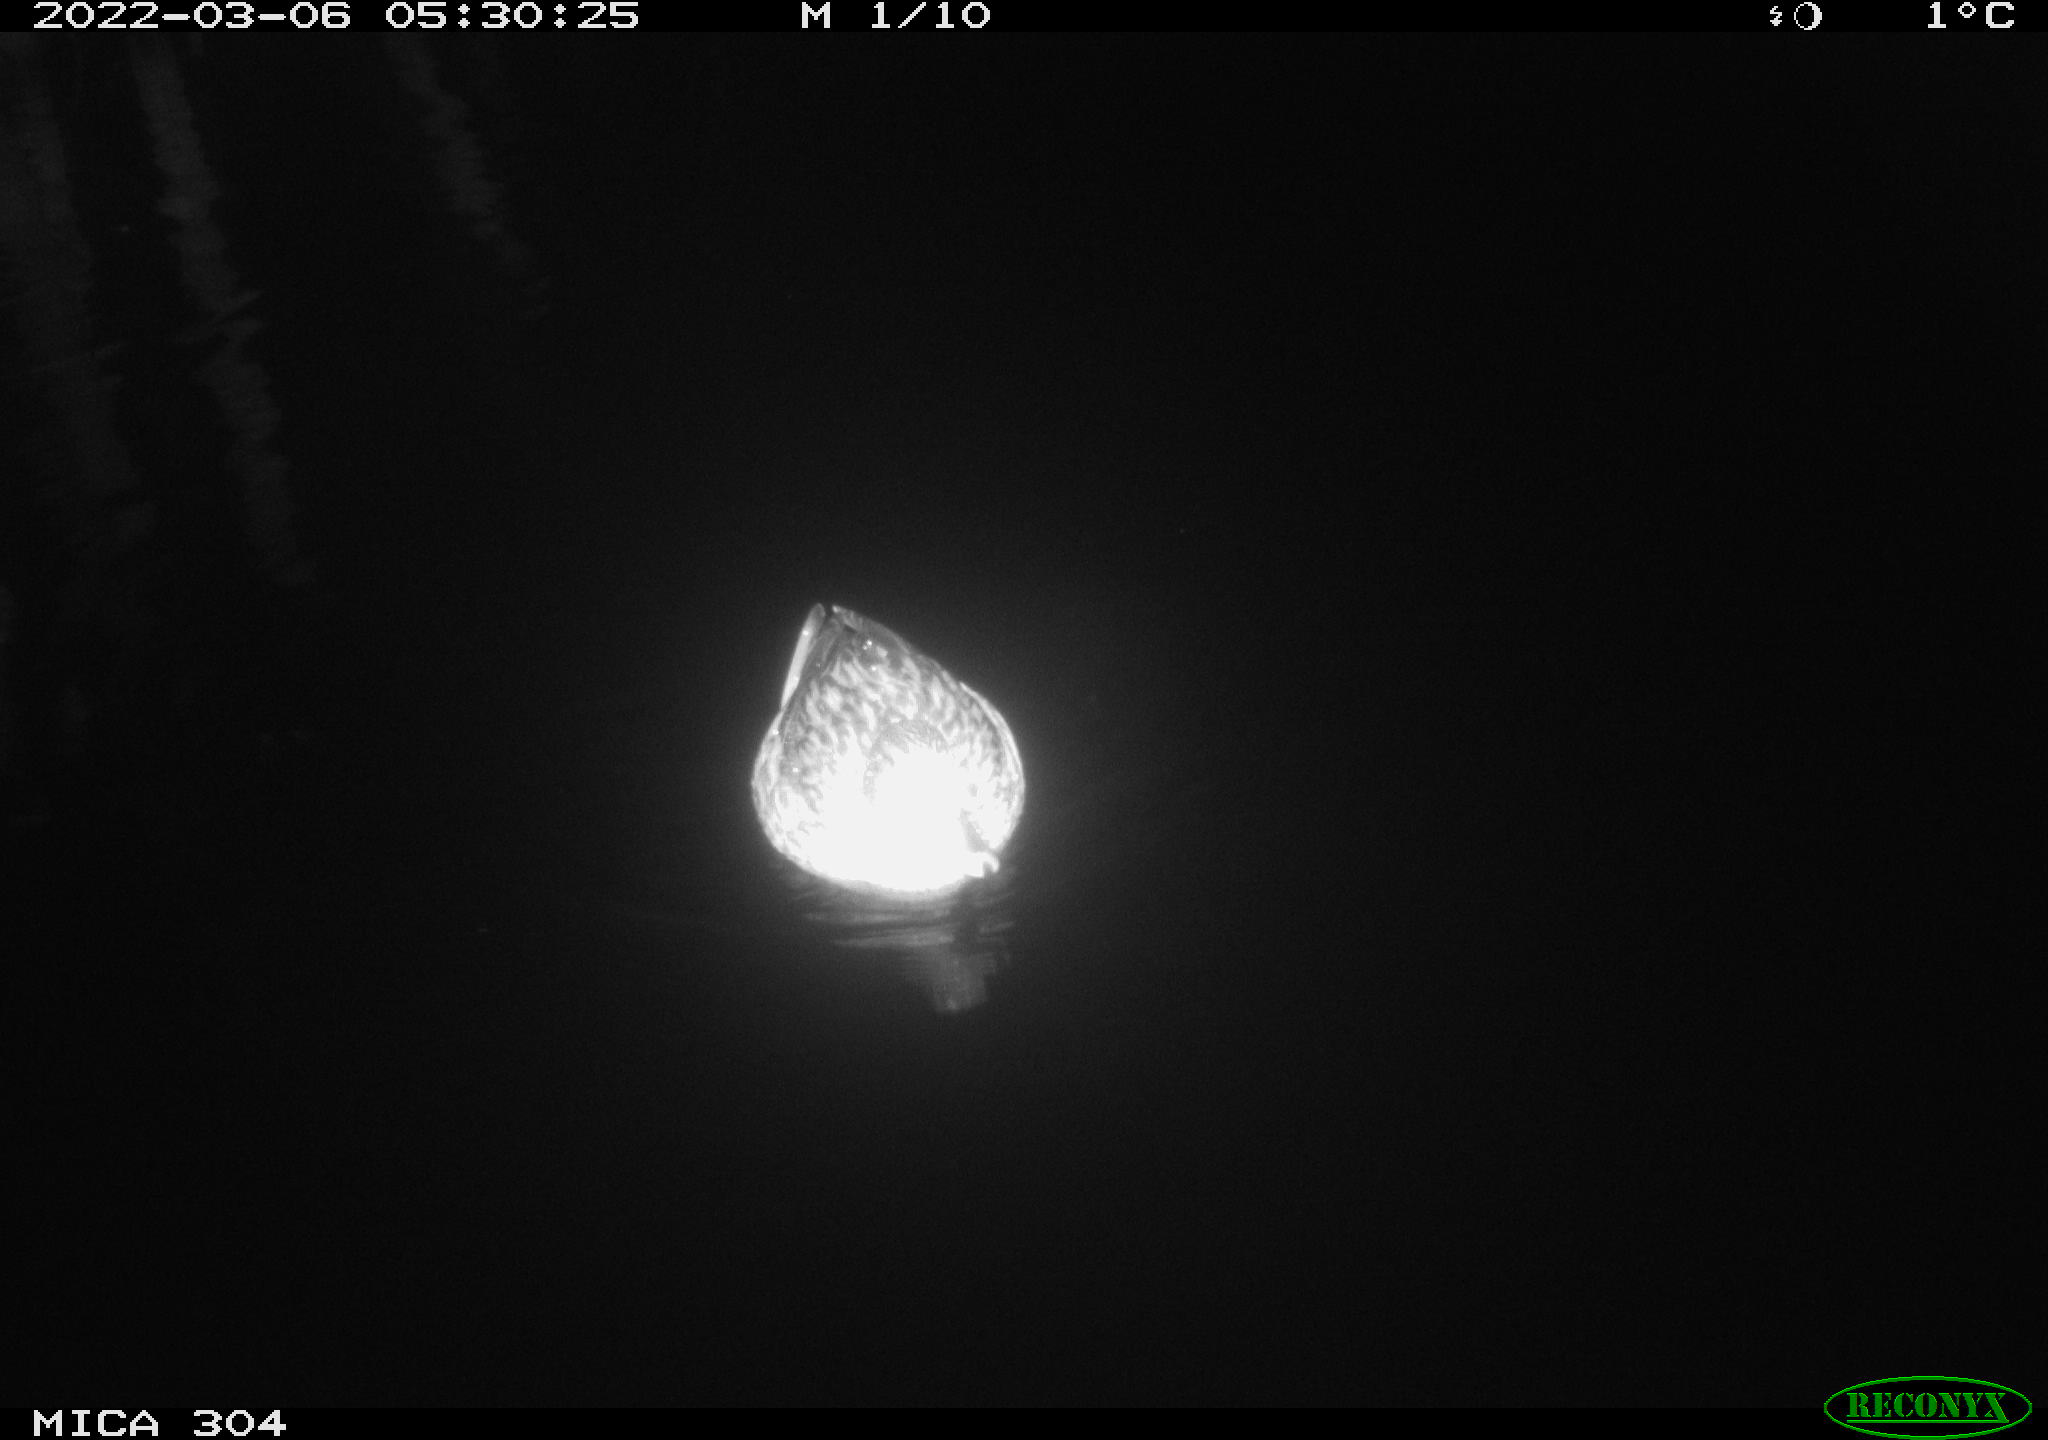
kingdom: Animalia
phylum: Chordata
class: Aves
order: Anseriformes
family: Anatidae
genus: Anas
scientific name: Anas platyrhynchos
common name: Mallard
